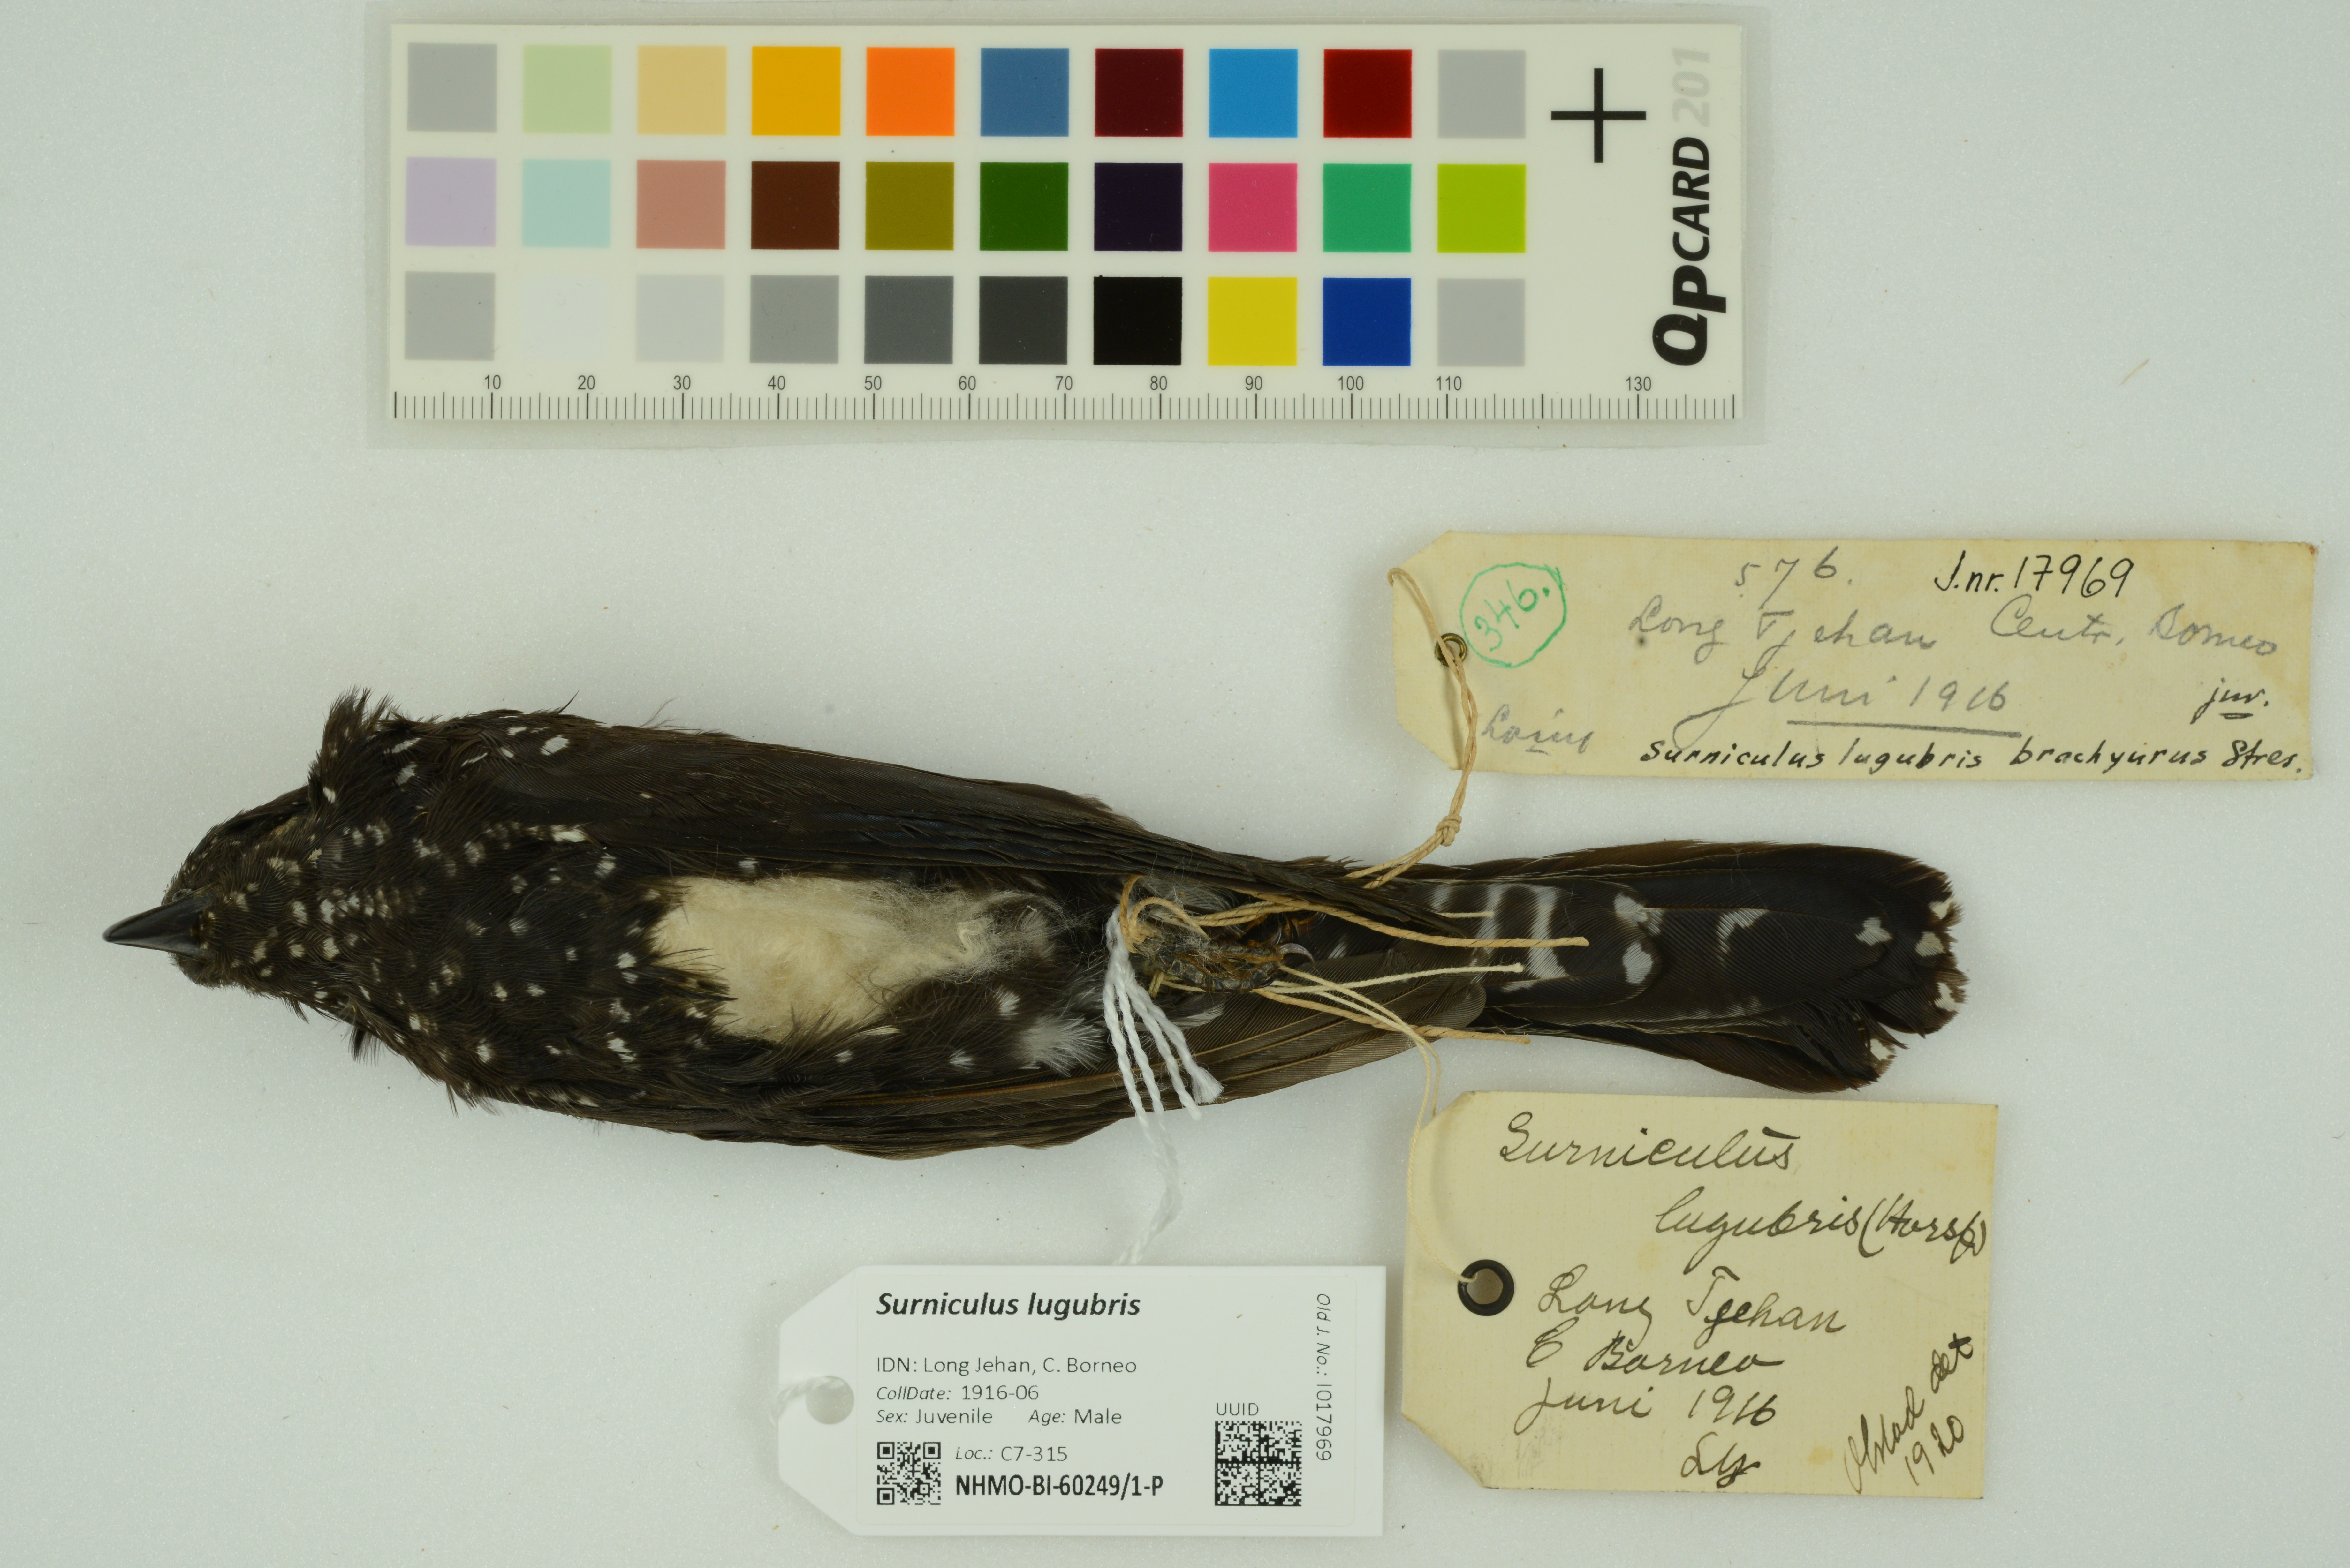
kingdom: Animalia
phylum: Chordata
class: Aves
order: Cuculiformes
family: Cuculidae
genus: Surniculus
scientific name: Surniculus lugubris
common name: Square-tailed drongo-cuckoo
